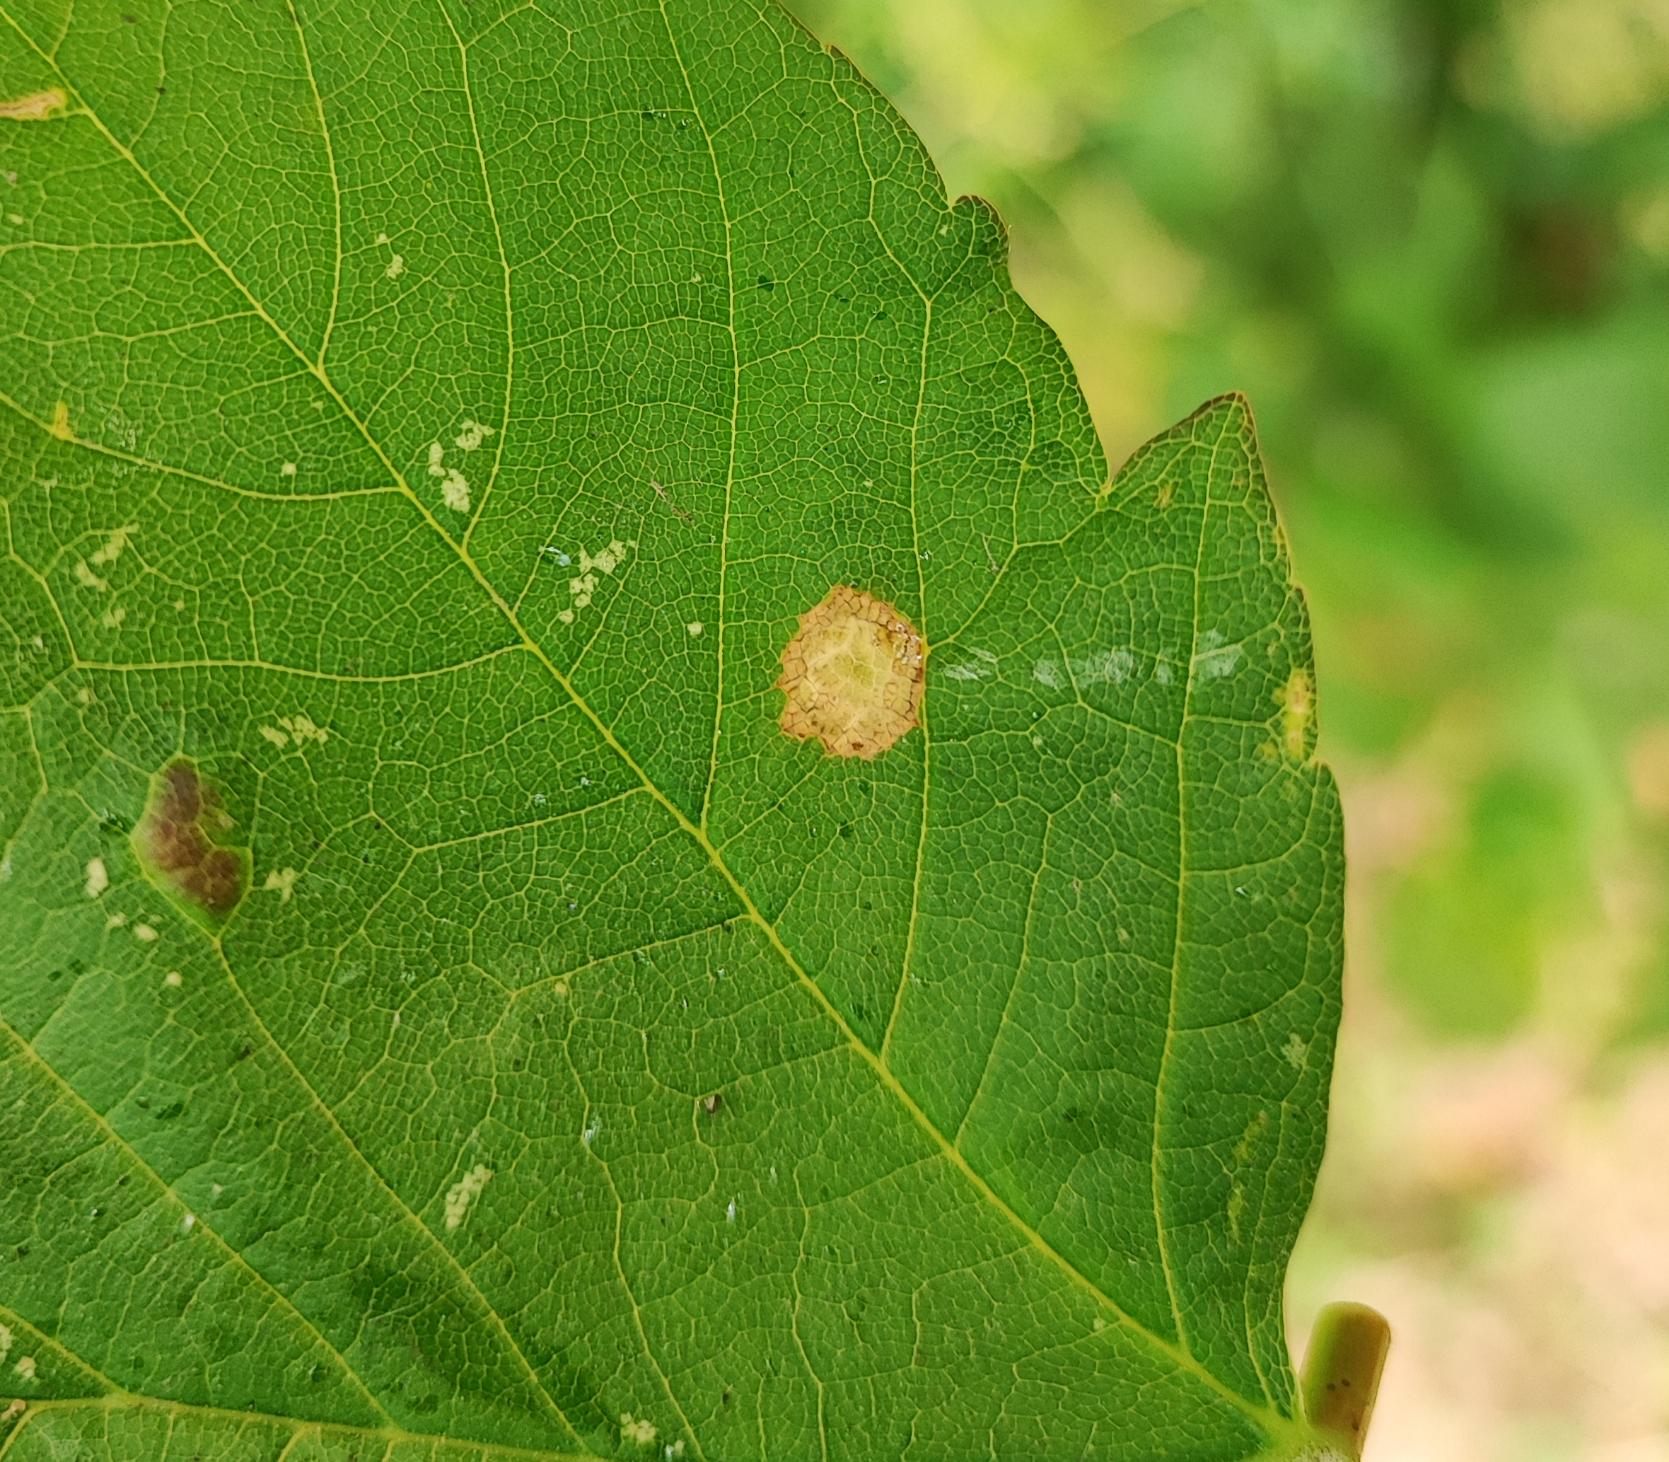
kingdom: Animalia
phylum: Arthropoda
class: Insecta
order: Diptera
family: Cecidomyiidae
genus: Drisina
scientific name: Drisina glutinosa
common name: Ahornblistgalmyg
